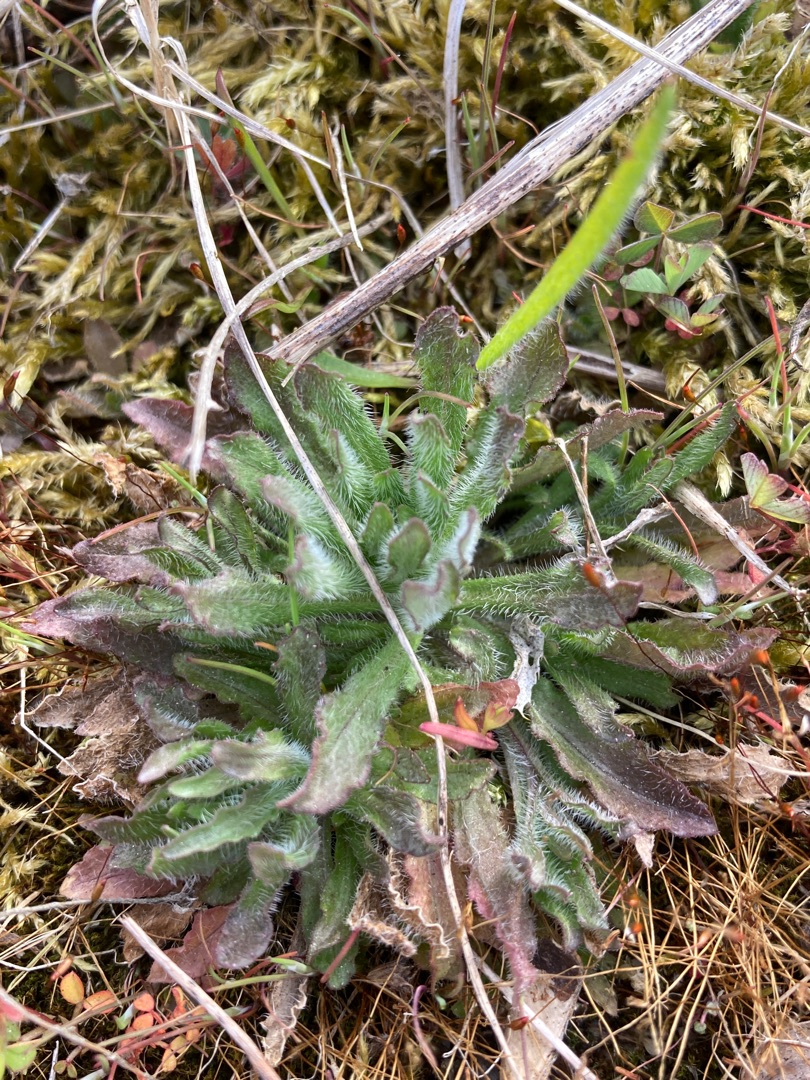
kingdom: Plantae
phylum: Tracheophyta
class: Magnoliopsida
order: Asterales
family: Campanulaceae
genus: Jasione
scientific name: Jasione montana
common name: Blåmunke
